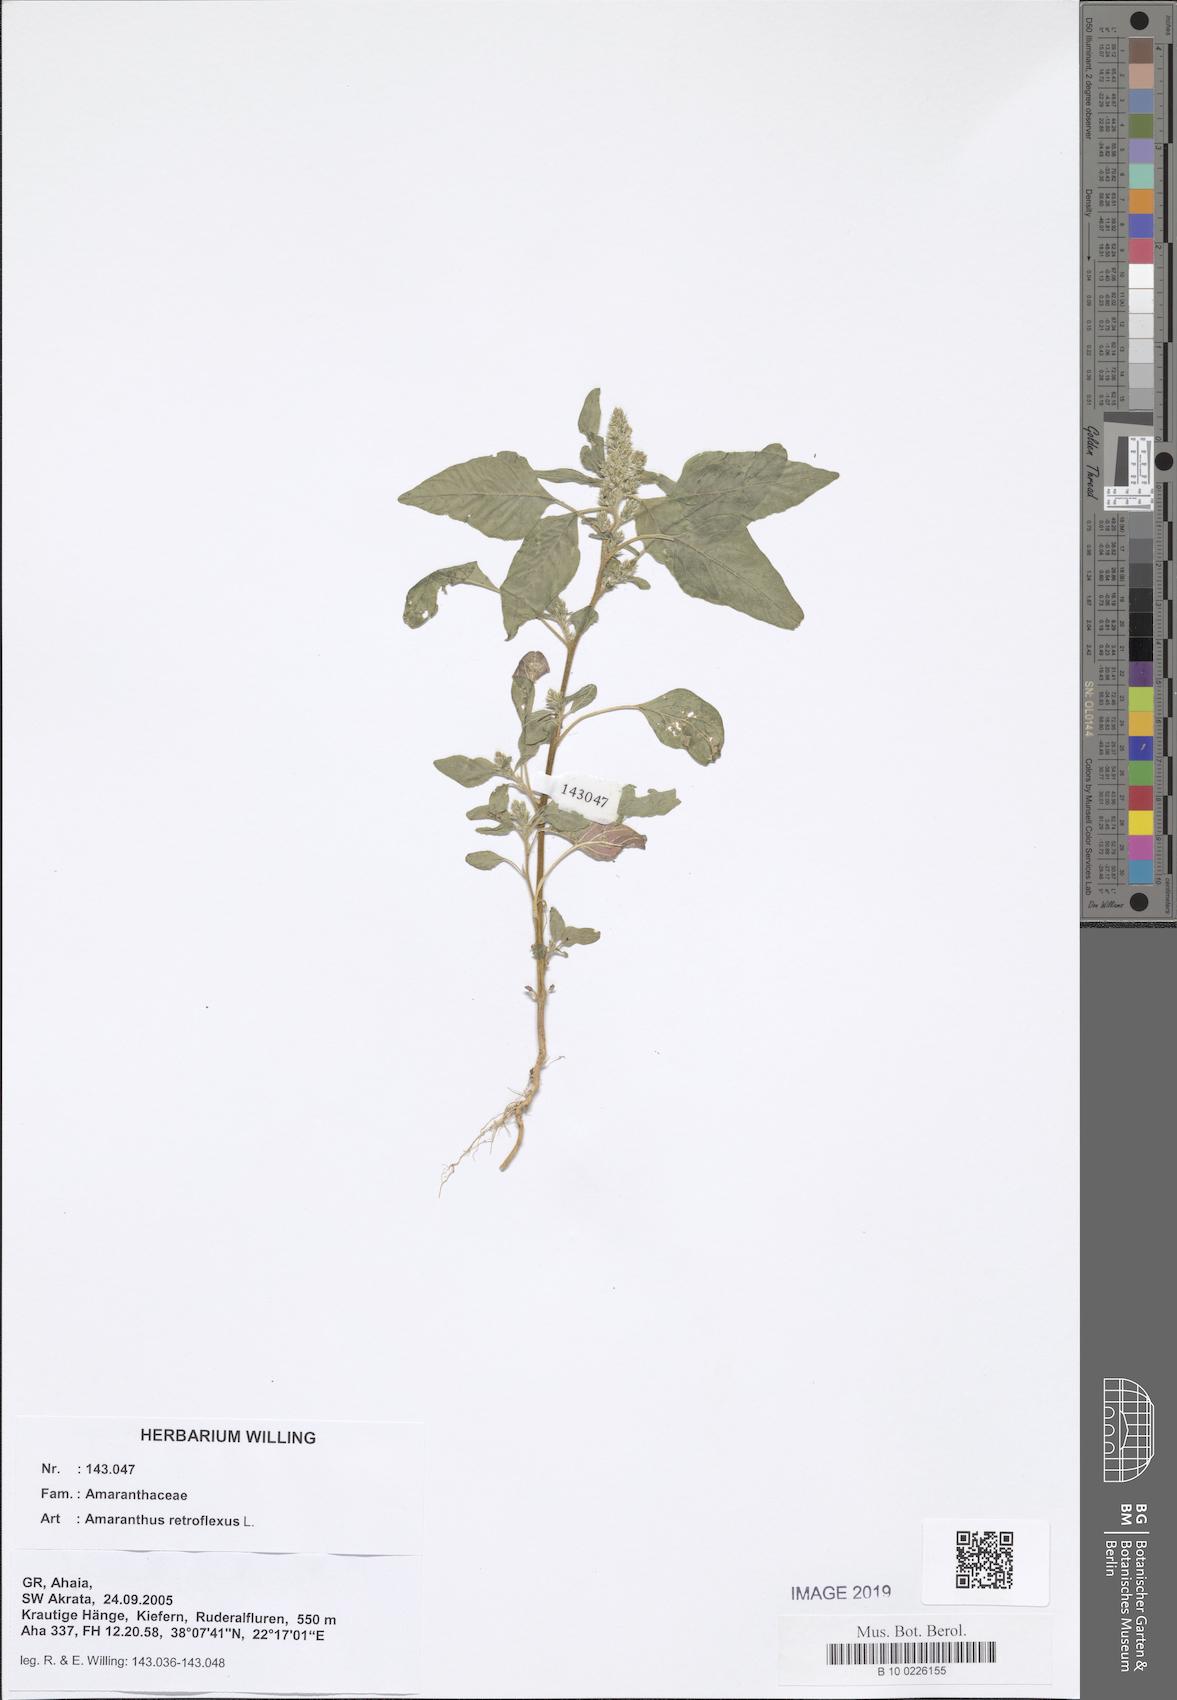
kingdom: Plantae
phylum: Tracheophyta
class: Magnoliopsida
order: Caryophyllales
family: Amaranthaceae
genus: Amaranthus
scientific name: Amaranthus retroflexus
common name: Redroot amaranth
